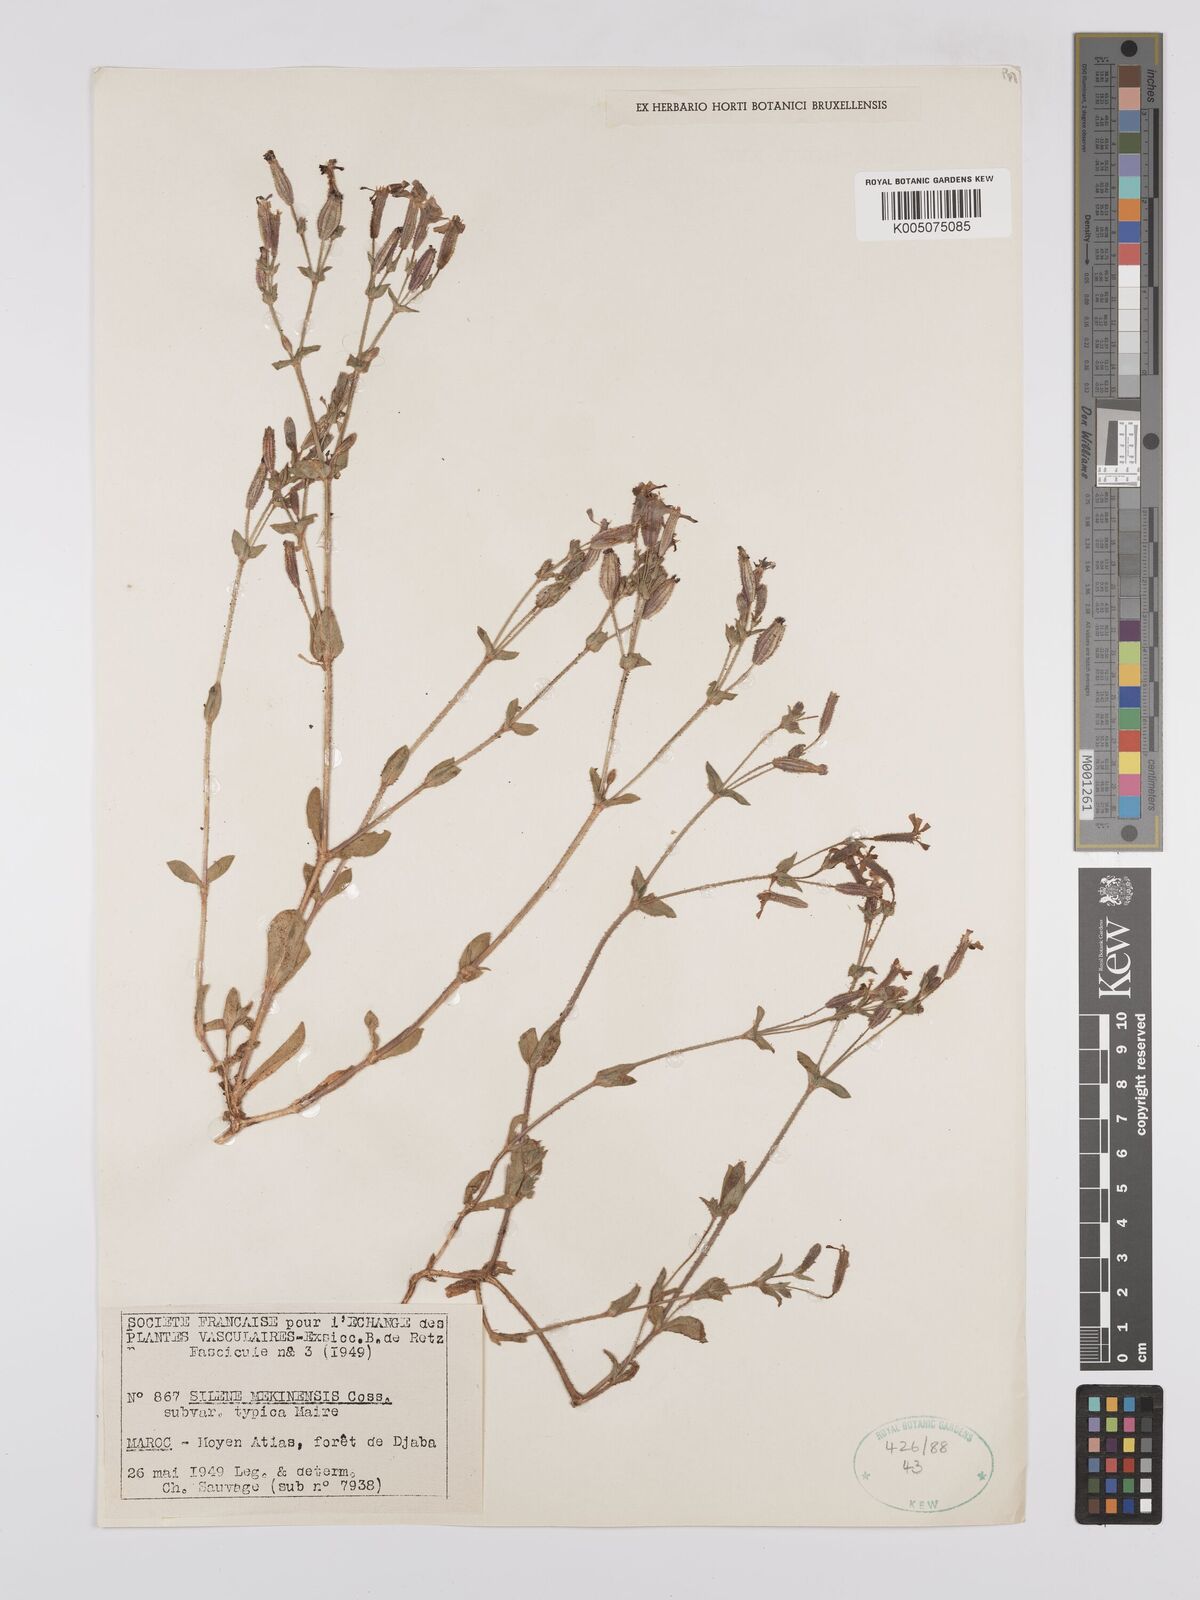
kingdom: Plantae
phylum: Tracheophyta
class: Magnoliopsida
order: Caryophyllales
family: Caryophyllaceae
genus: Silene
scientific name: Silene mekinensis
